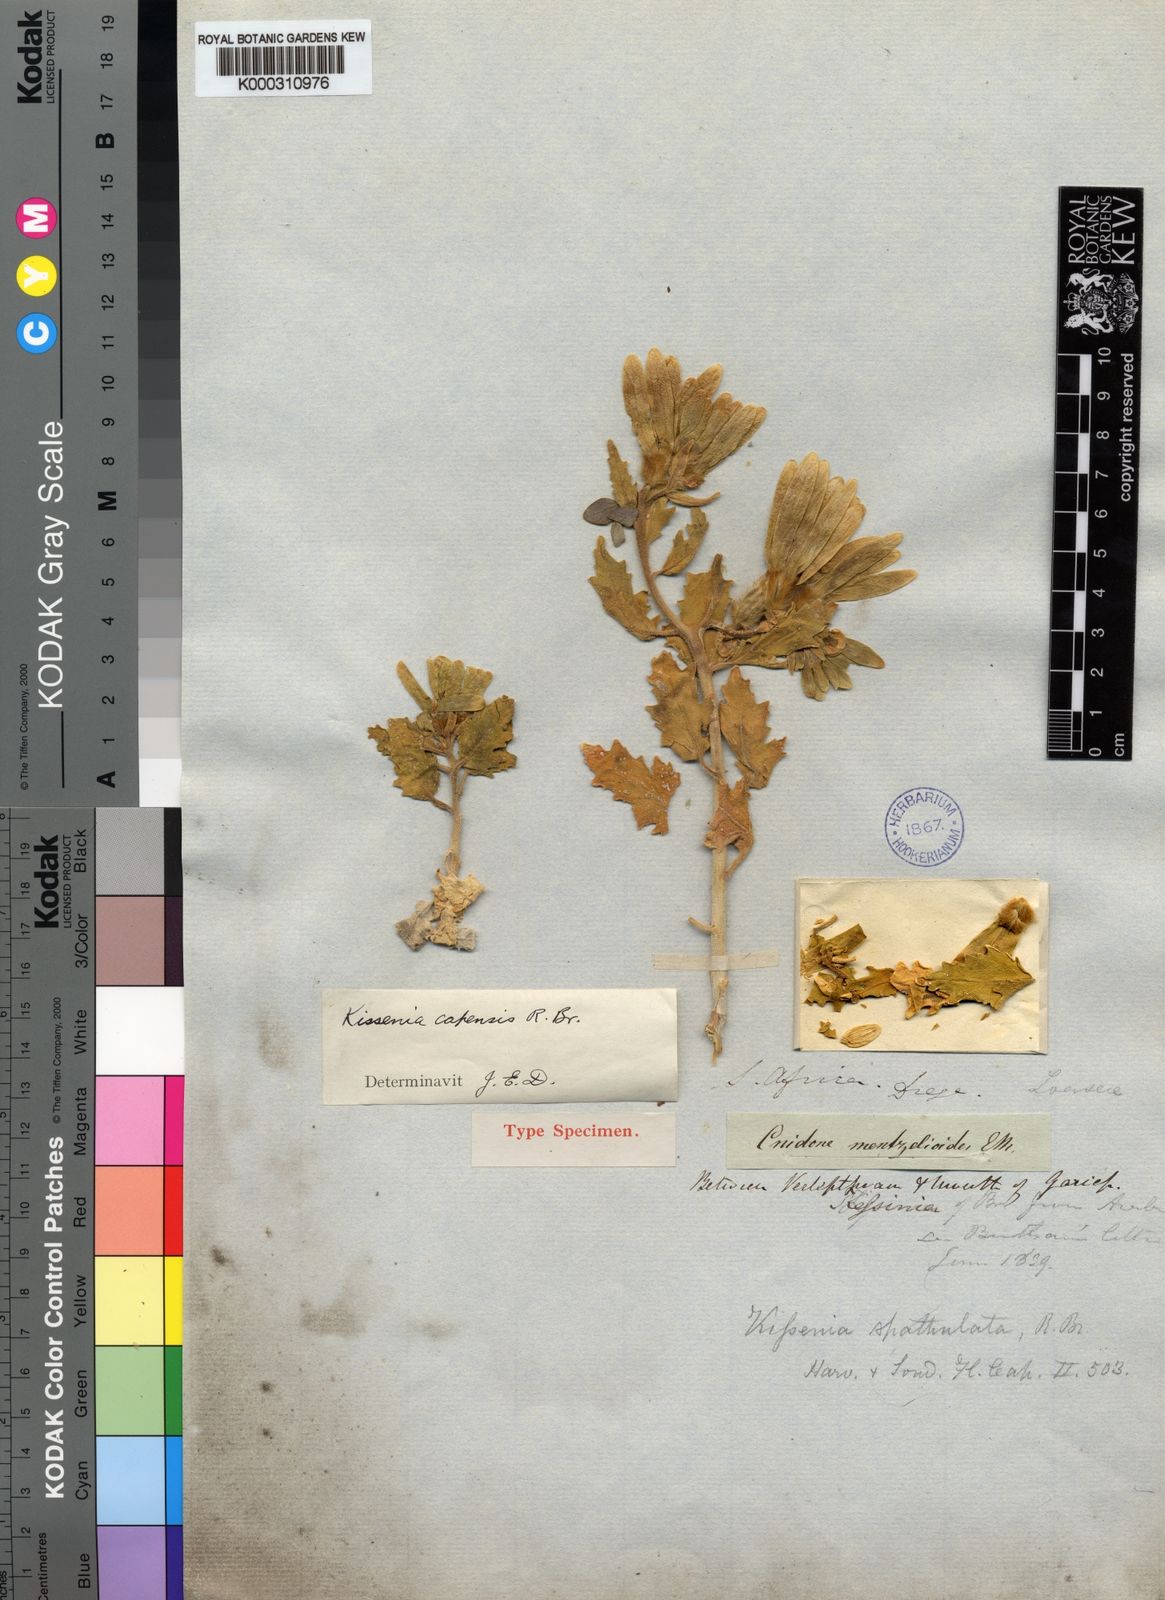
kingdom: Plantae
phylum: Tracheophyta
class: Magnoliopsida
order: Cornales
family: Loasaceae
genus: Kissenia
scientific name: Kissenia capensis
